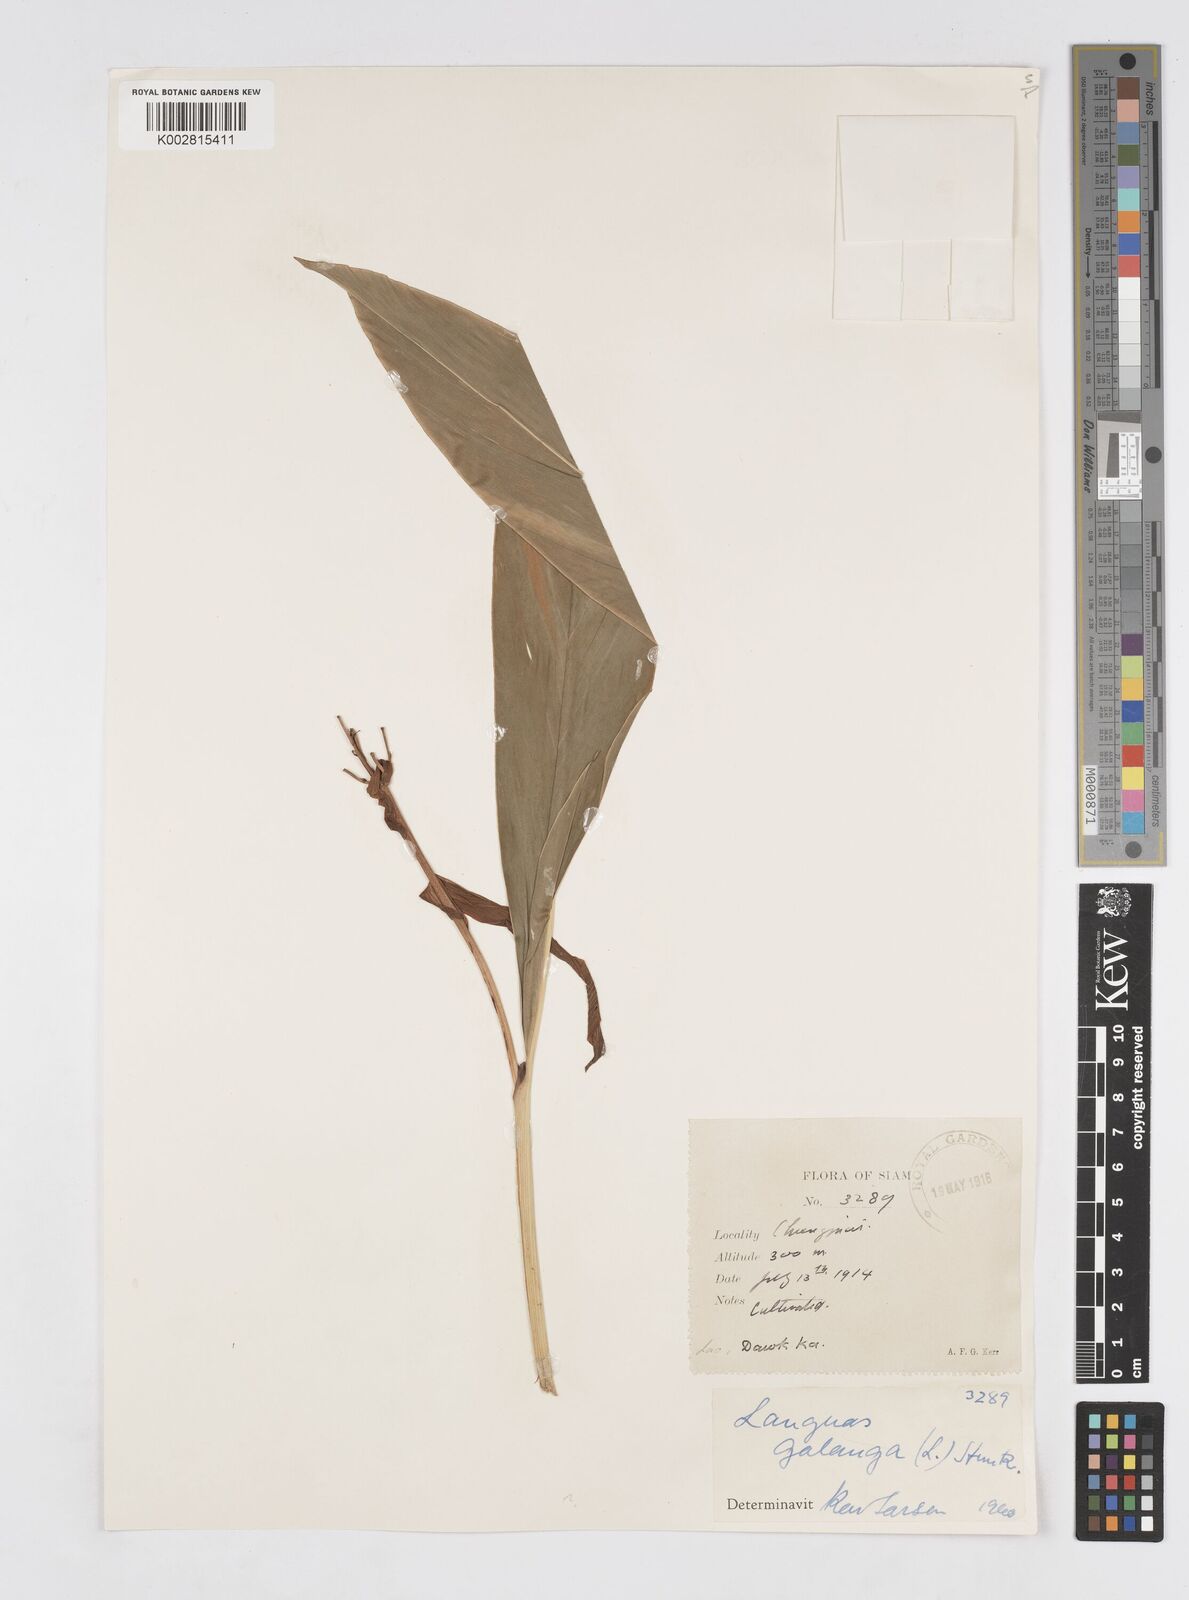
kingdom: Plantae
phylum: Tracheophyta
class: Liliopsida
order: Zingiberales
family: Zingiberaceae
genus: Alpinia
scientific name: Alpinia galanga
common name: Siamese-ginger
